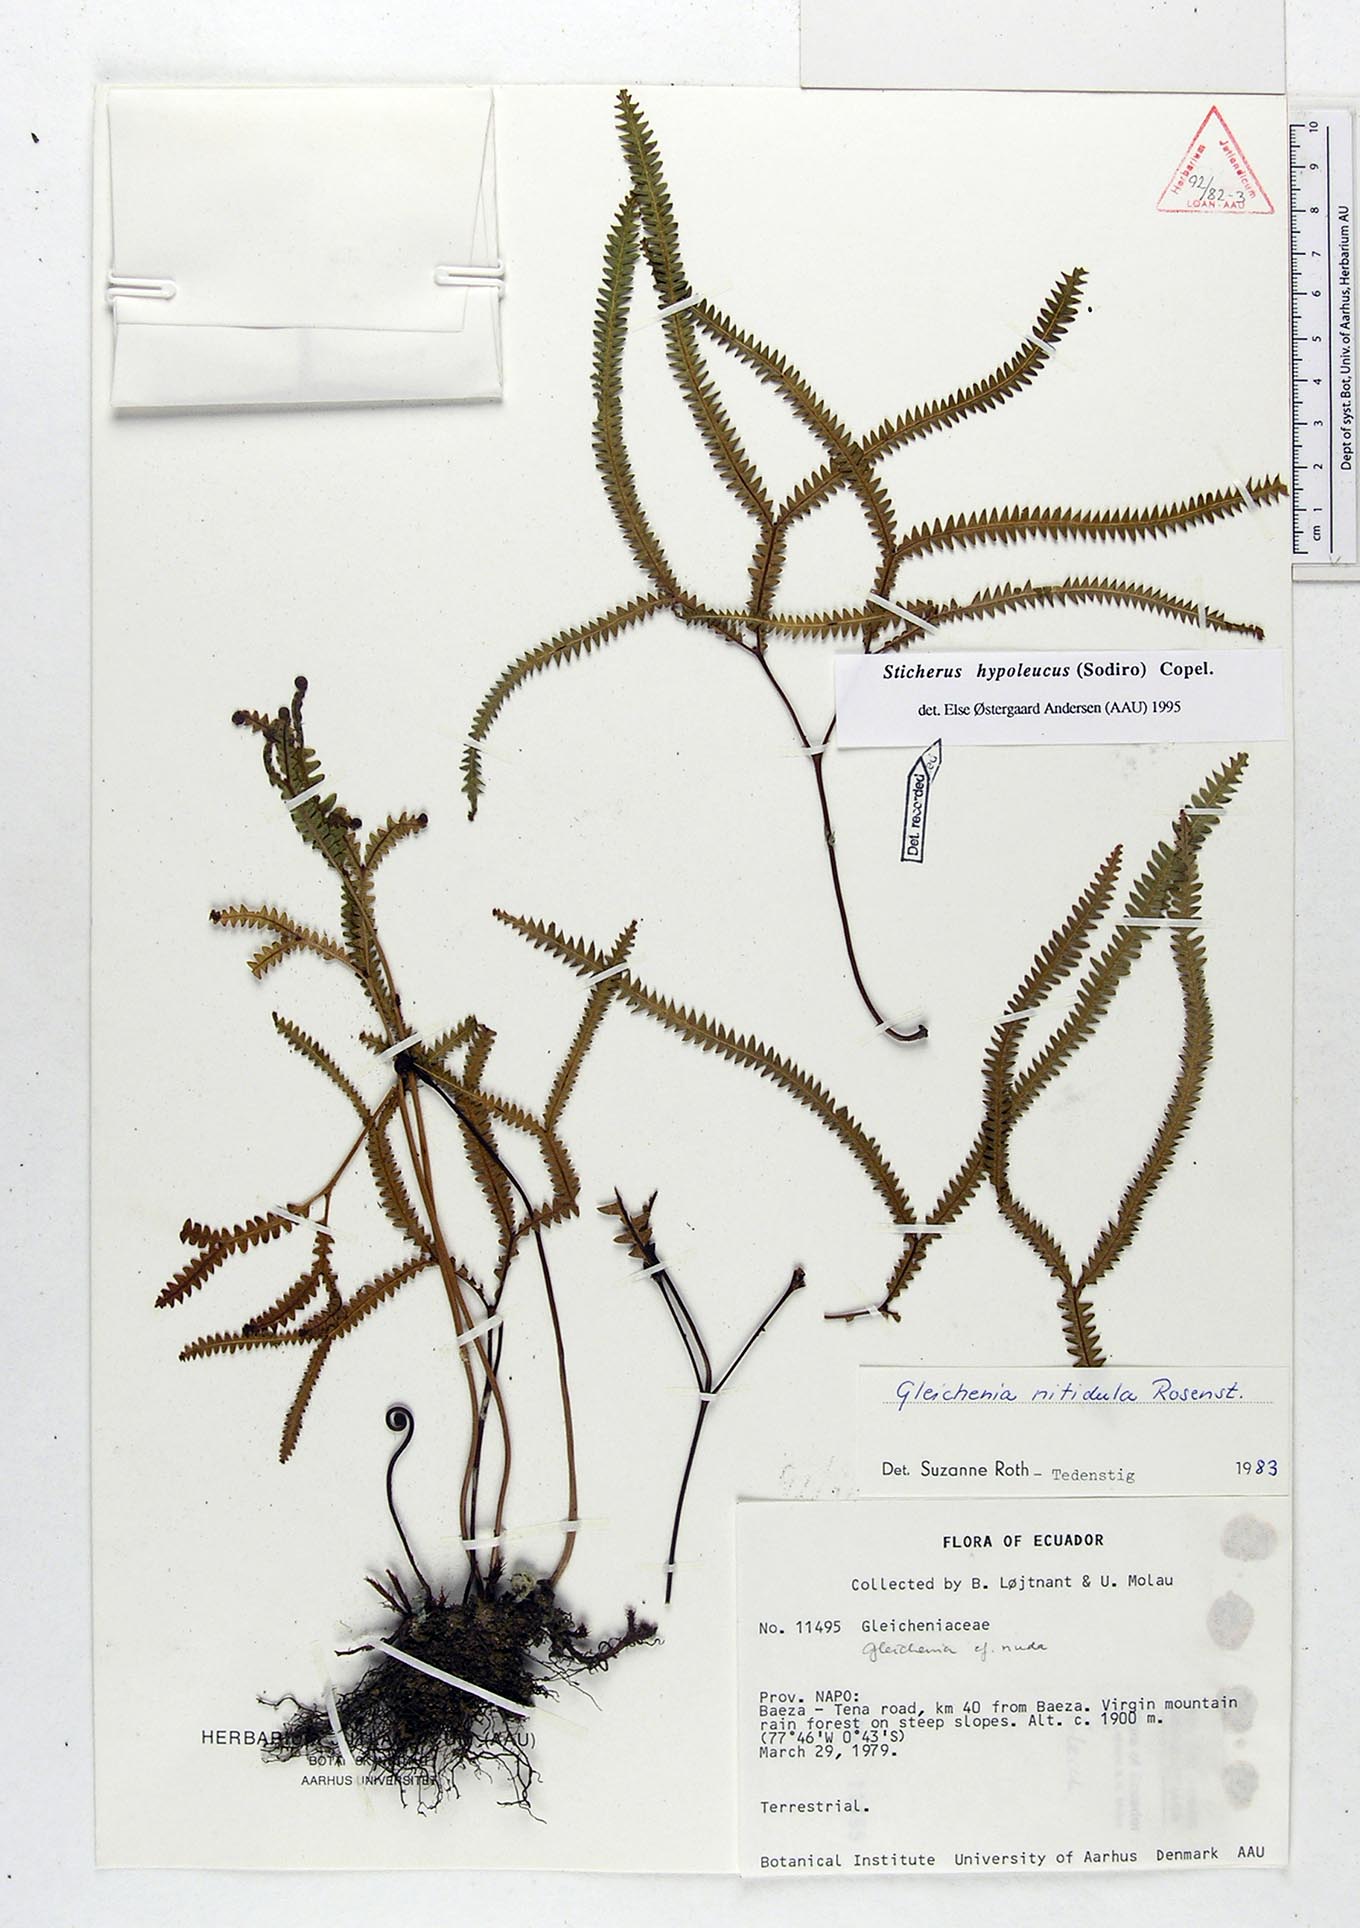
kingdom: Plantae
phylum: Tracheophyta
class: Polypodiopsida
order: Gleicheniales
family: Gleicheniaceae
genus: Sticherus
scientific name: Sticherus hypoleucus
